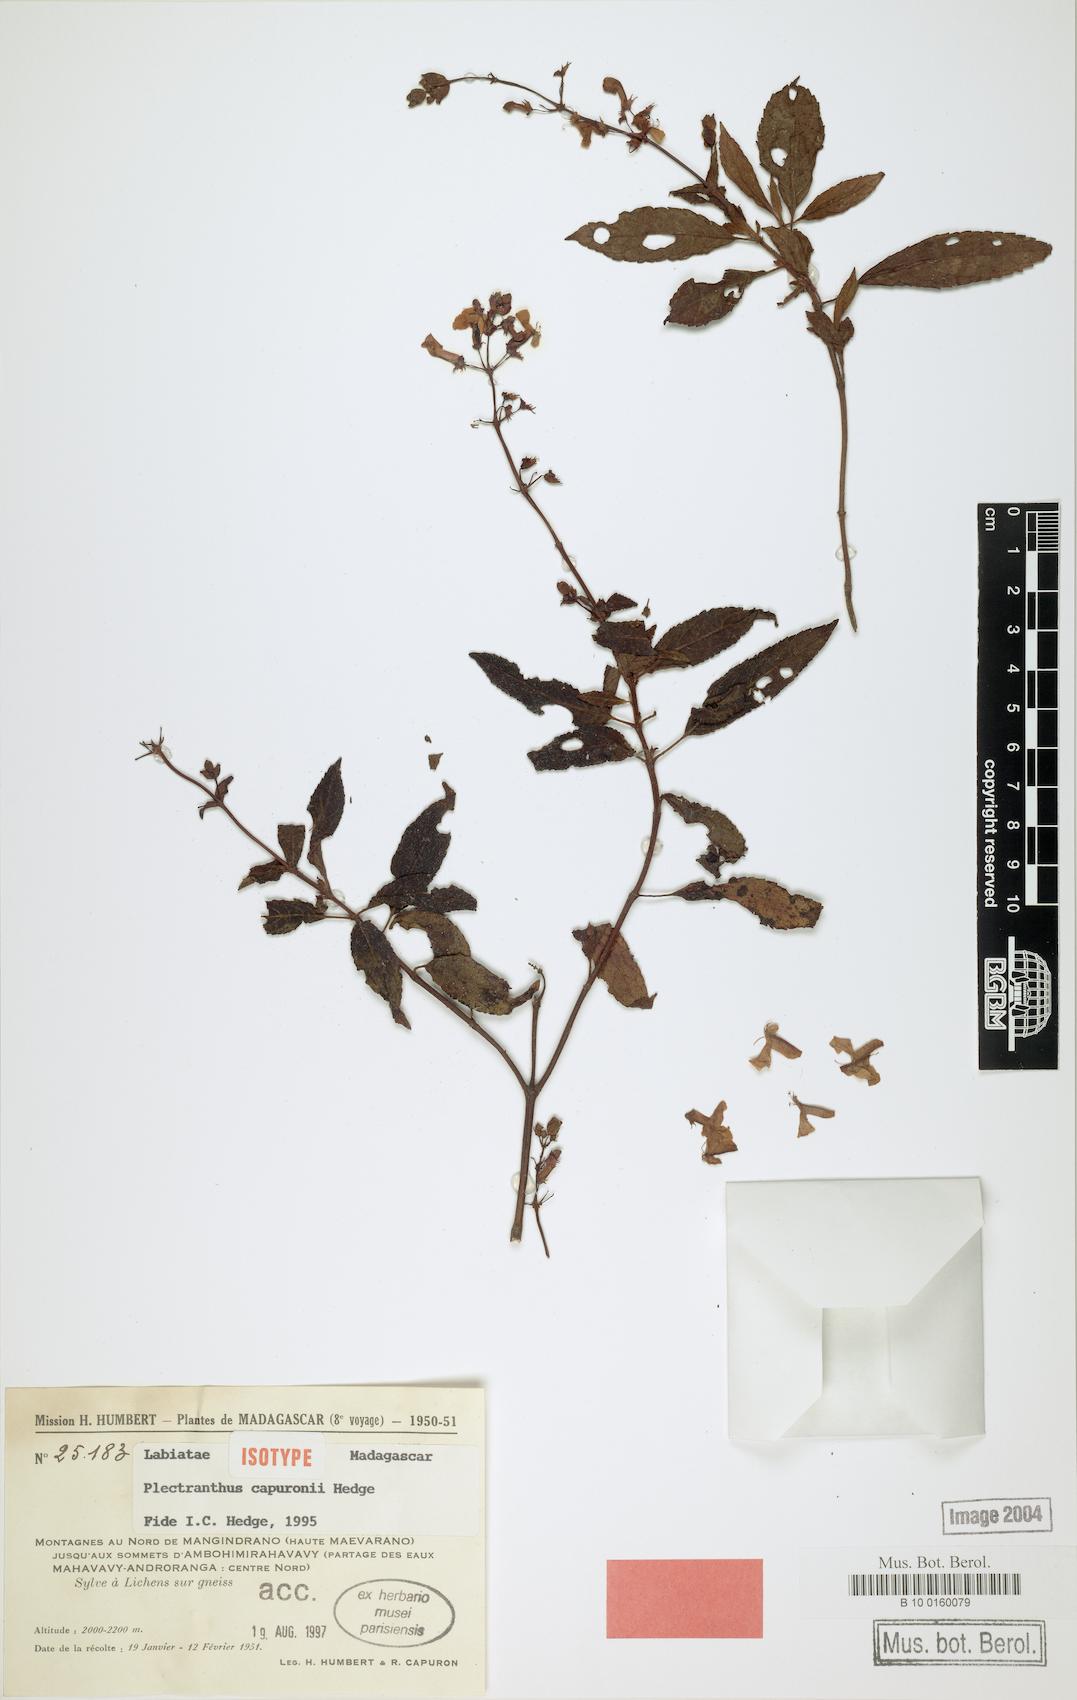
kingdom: Plantae
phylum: Tracheophyta
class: Magnoliopsida
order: Lamiales
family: Lamiaceae
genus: Plectranthus
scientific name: Plectranthus capuronii
